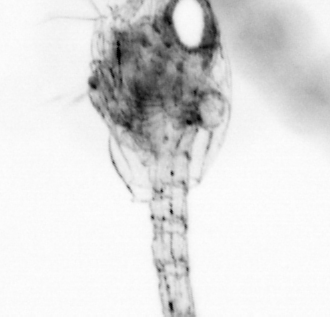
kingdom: Animalia
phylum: Annelida
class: Polychaeta
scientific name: Polychaeta
